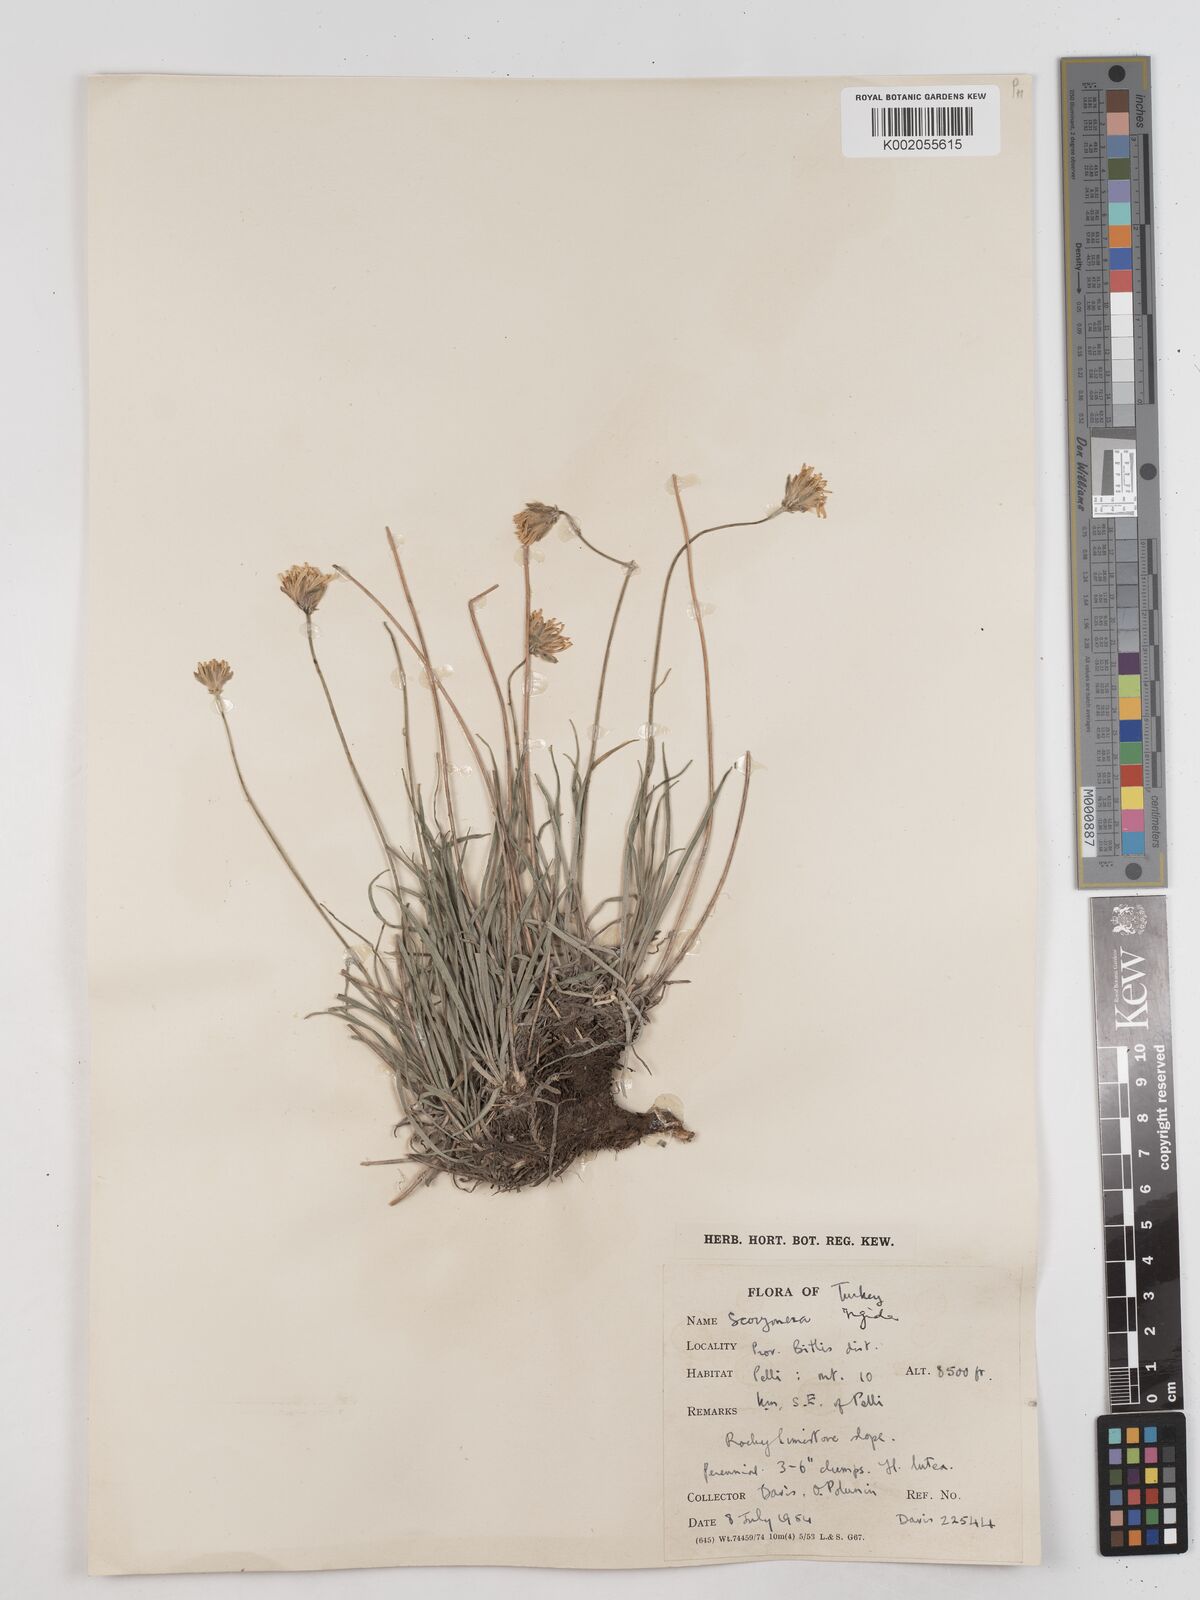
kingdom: Plantae
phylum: Tracheophyta
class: Magnoliopsida
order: Asterales
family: Asteraceae
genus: Scorzonera
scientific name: Scorzonera
